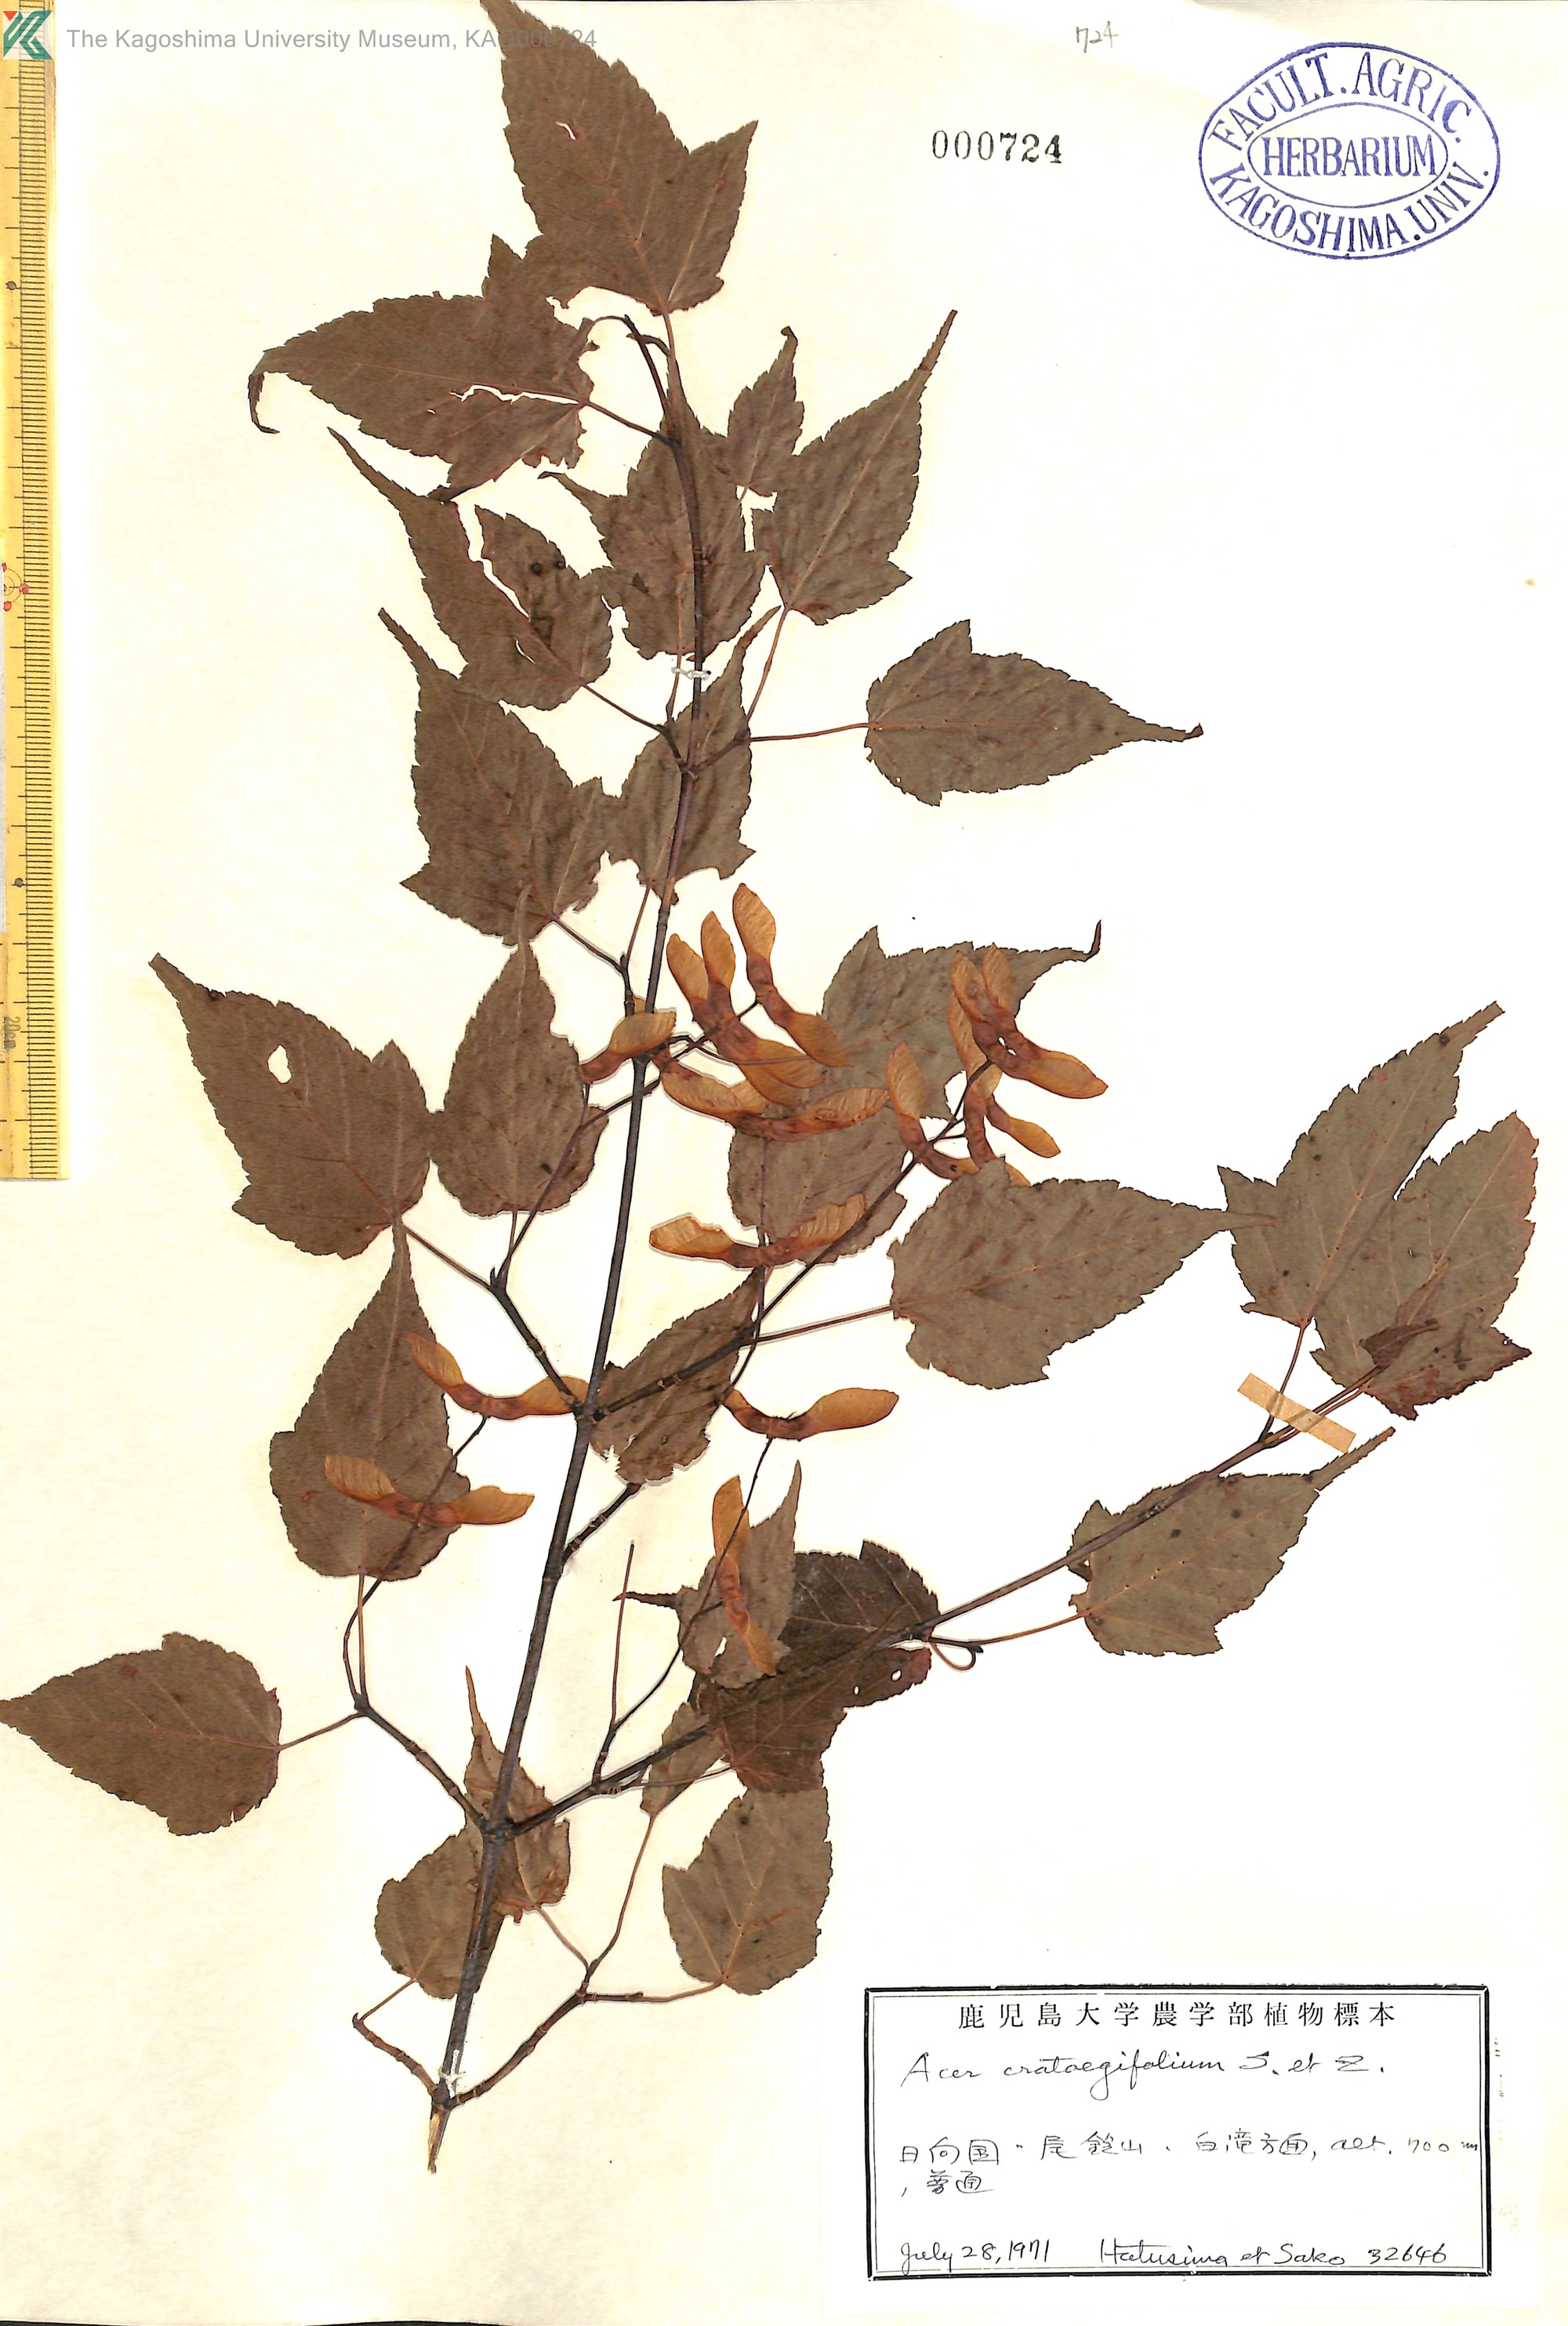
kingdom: Plantae
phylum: Tracheophyta
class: Magnoliopsida
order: Sapindales
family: Sapindaceae
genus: Acer
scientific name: Acer crataegifolium
